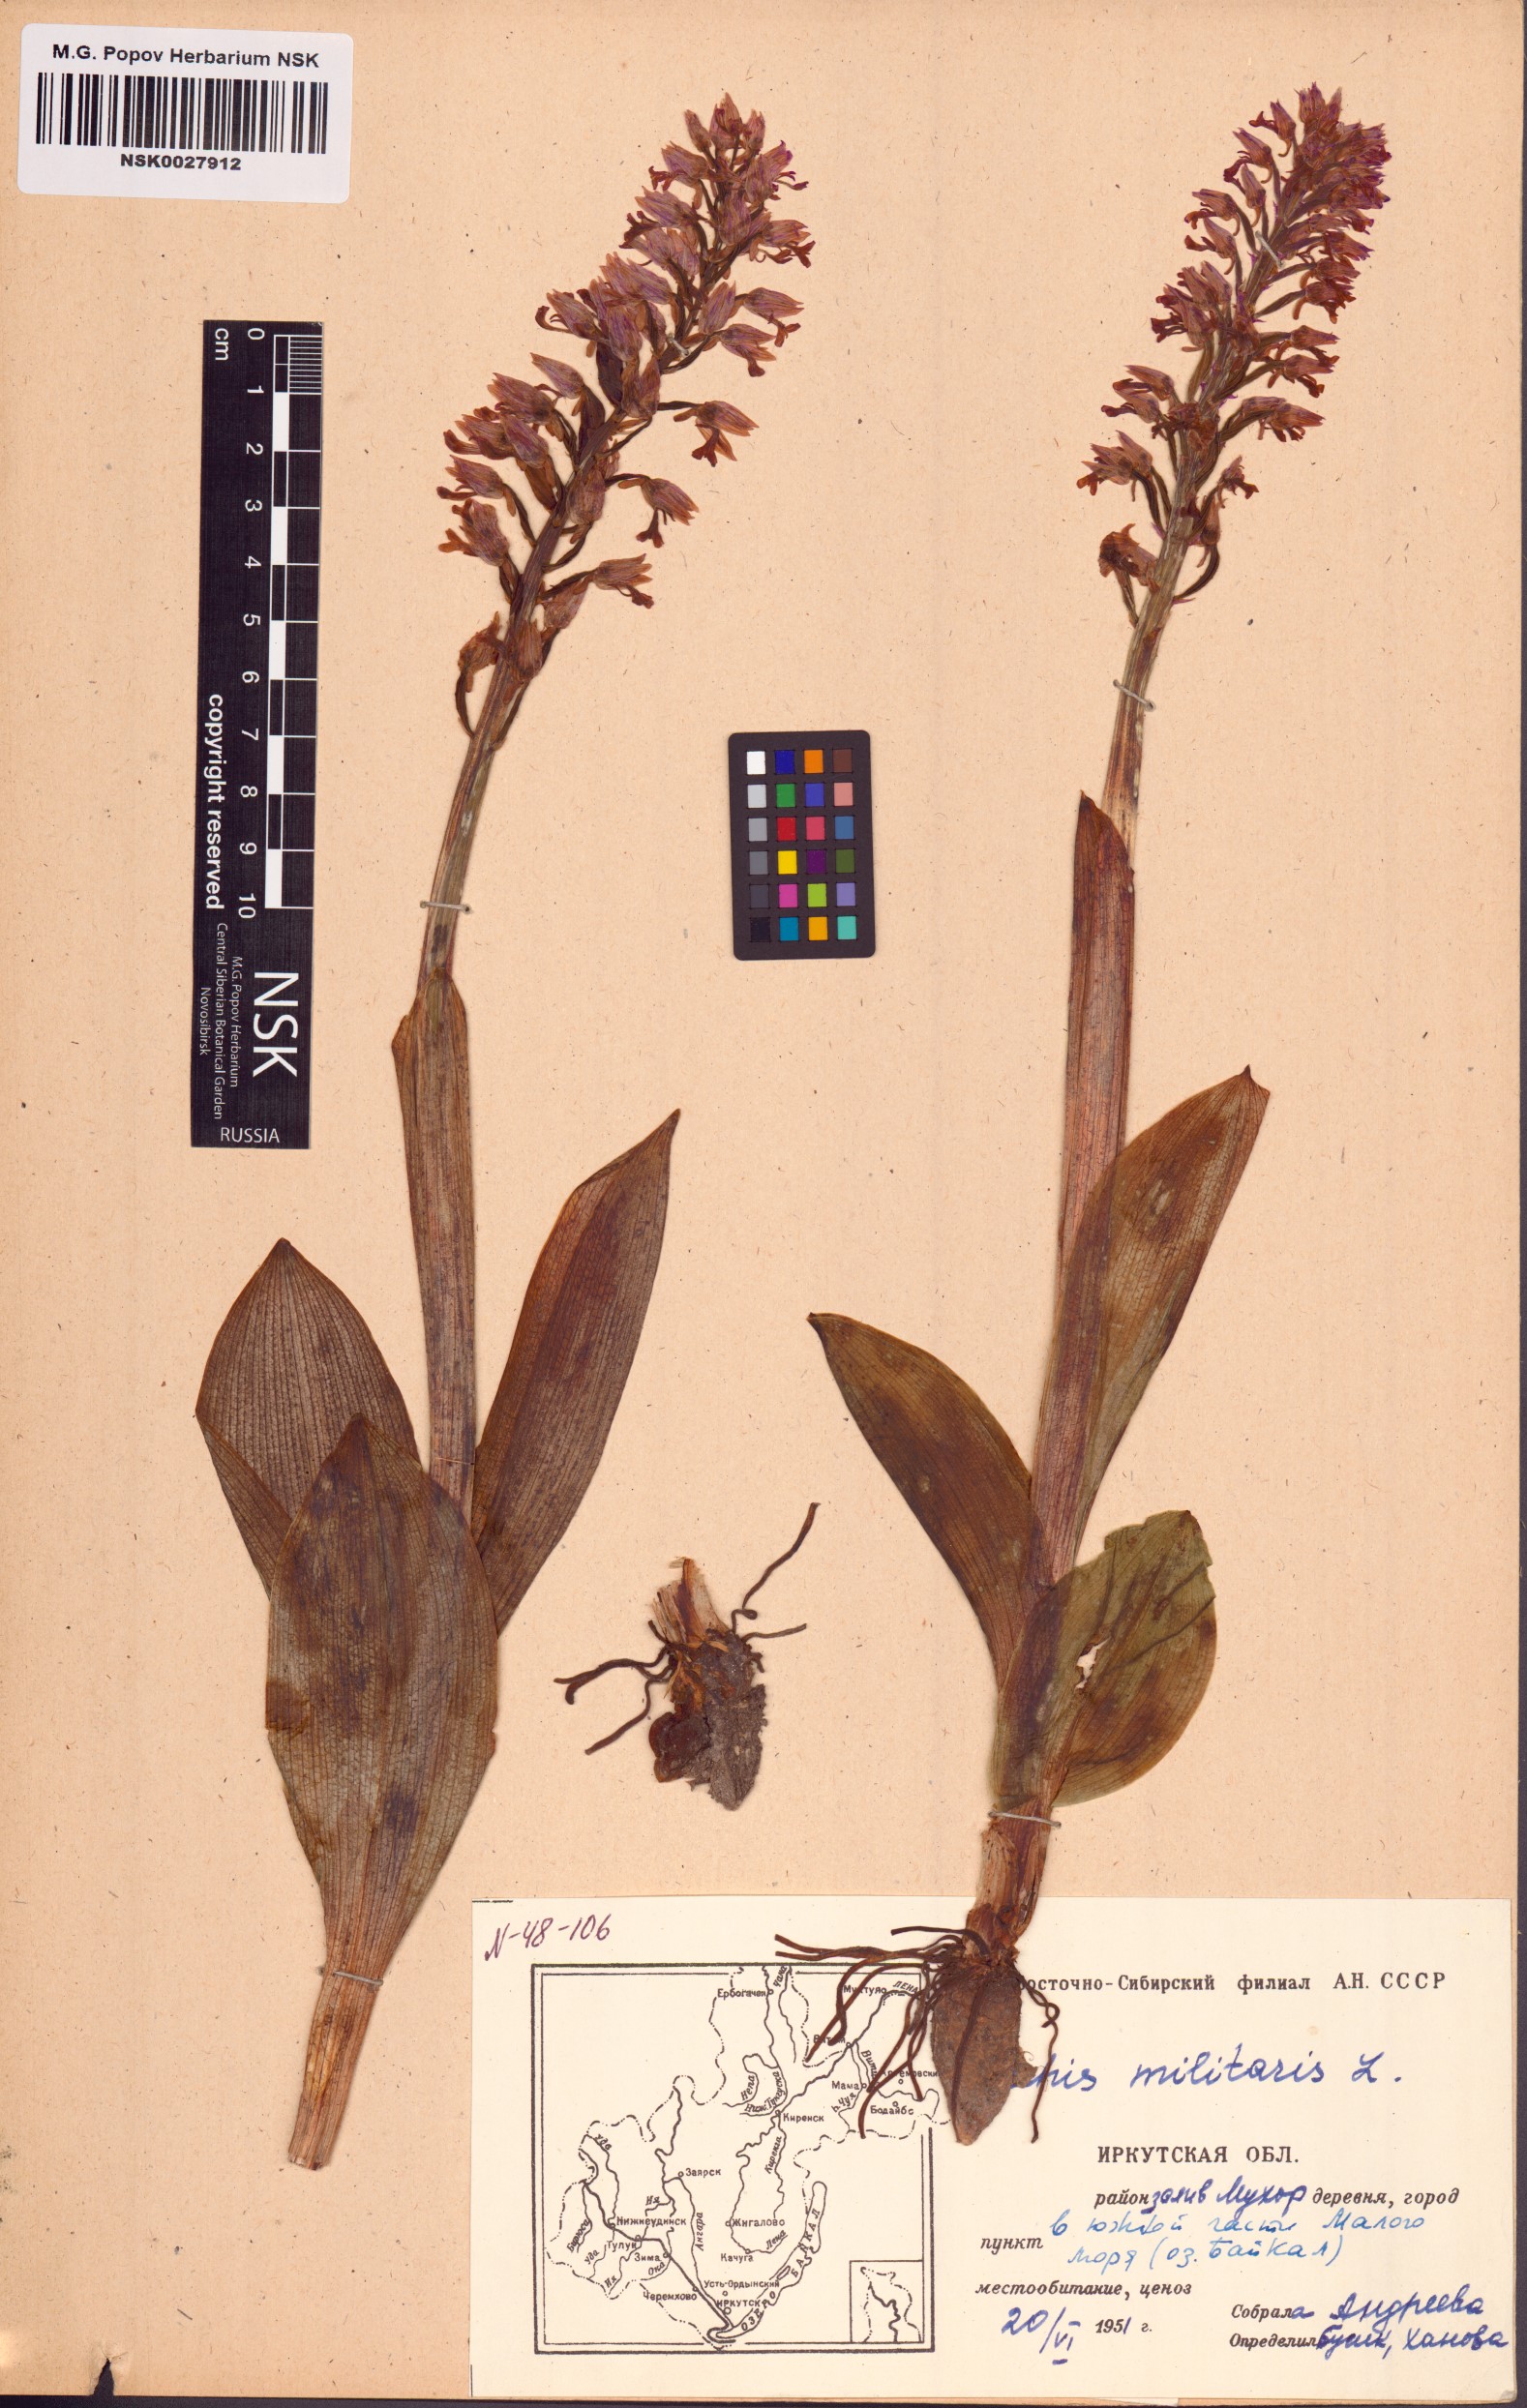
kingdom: Plantae
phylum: Tracheophyta
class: Liliopsida
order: Asparagales
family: Orchidaceae
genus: Orchis
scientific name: Orchis militaris
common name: Military orchid
